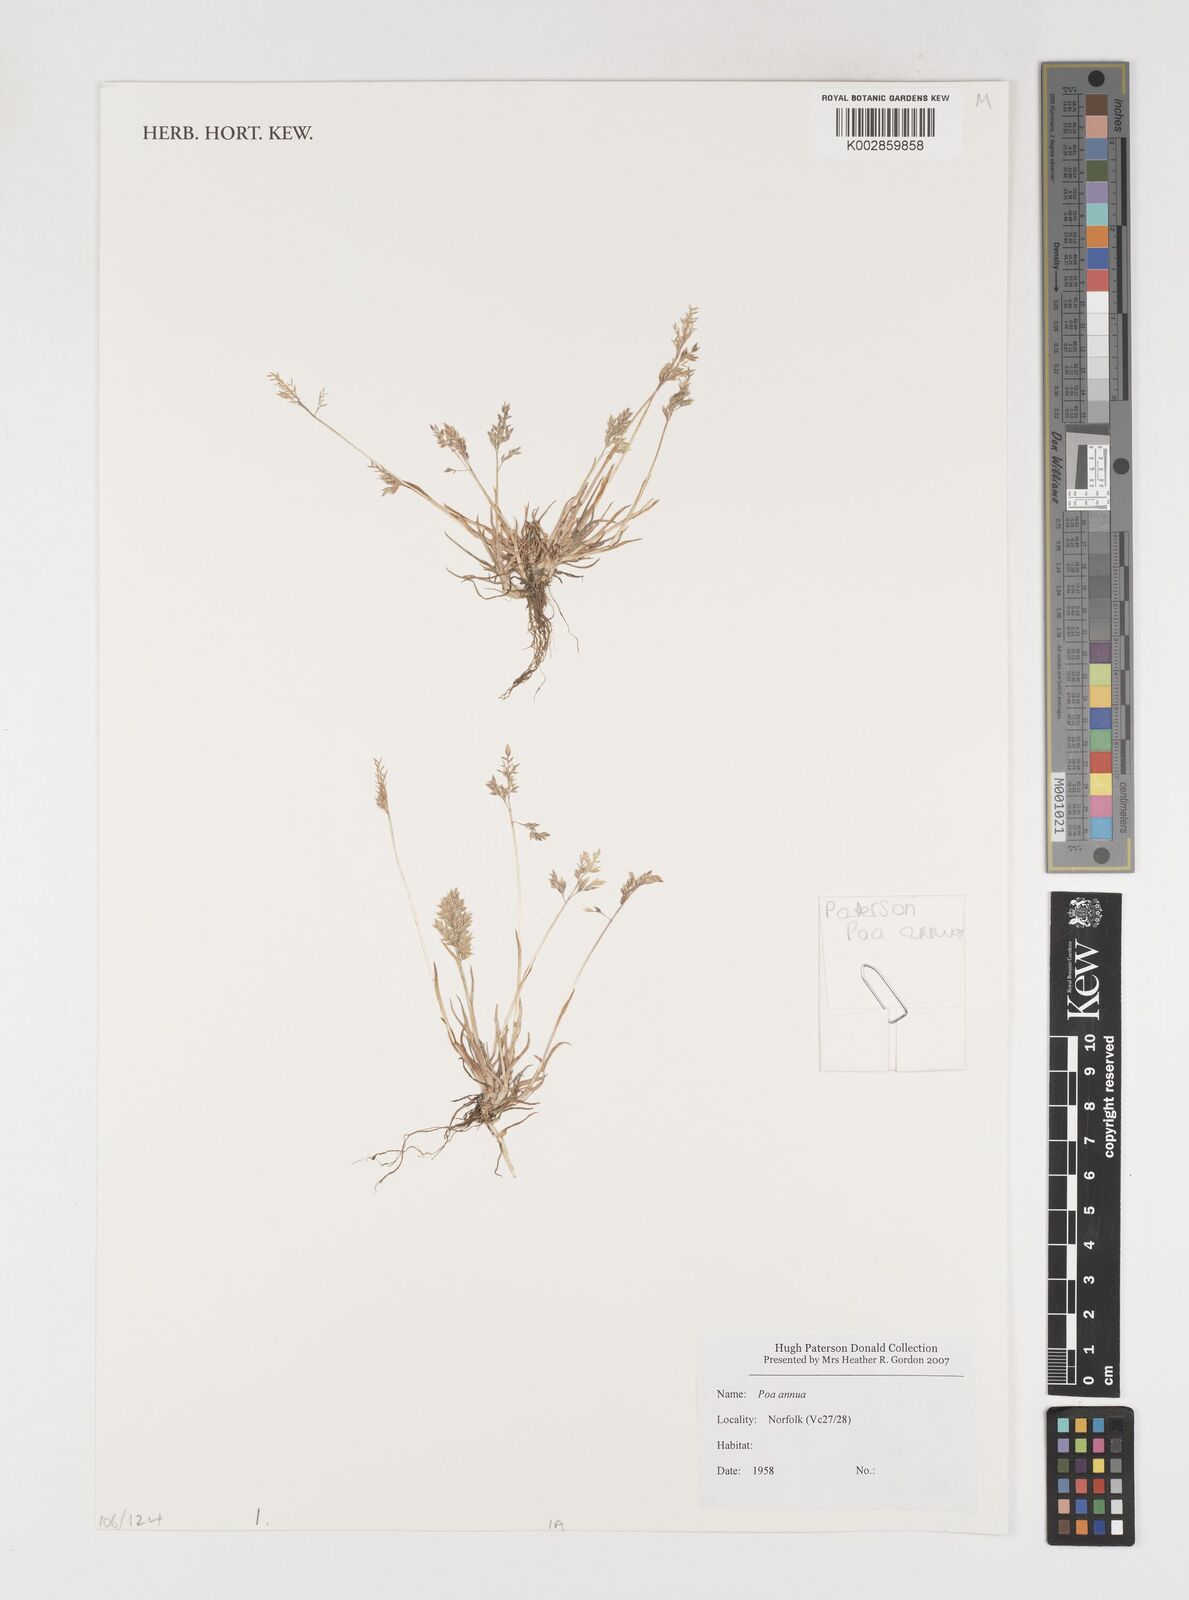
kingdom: Plantae
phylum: Tracheophyta
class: Liliopsida
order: Poales
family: Poaceae
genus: Poa
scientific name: Poa
